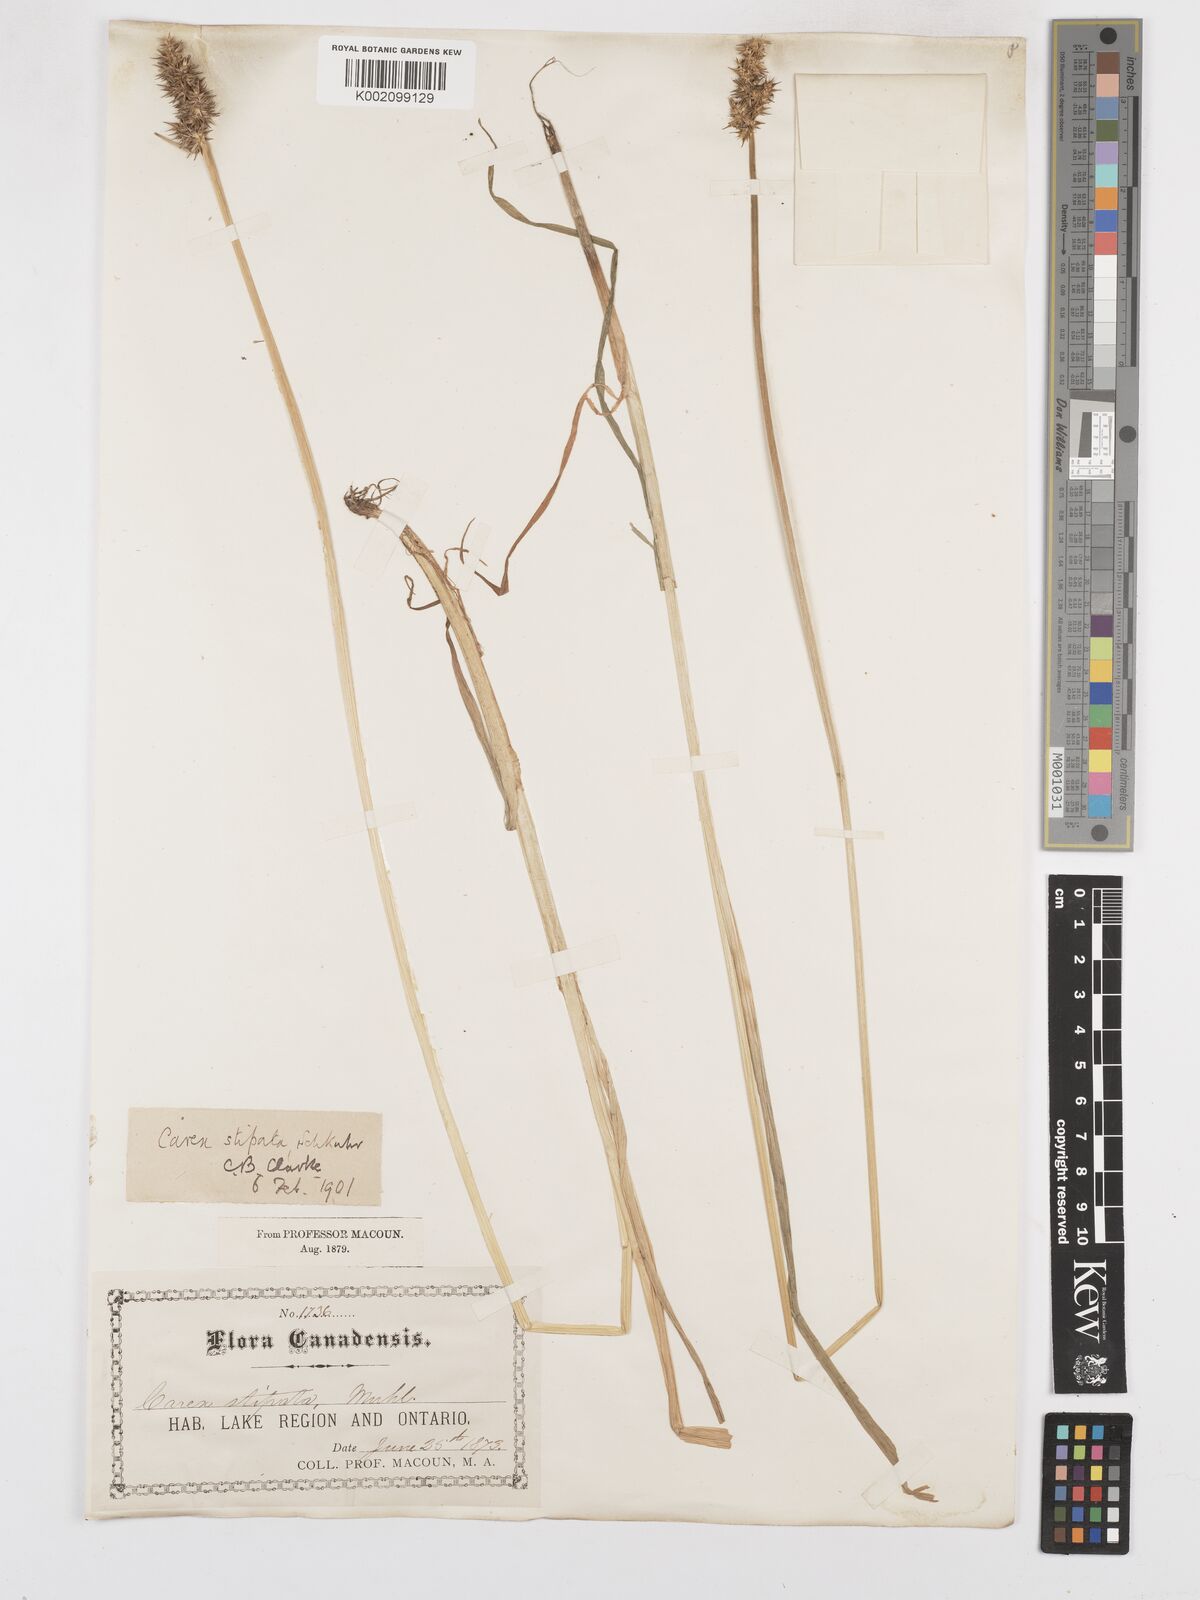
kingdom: Plantae
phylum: Tracheophyta
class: Liliopsida
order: Poales
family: Cyperaceae
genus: Carex
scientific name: Carex stipata
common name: Awl-fruited sedge
